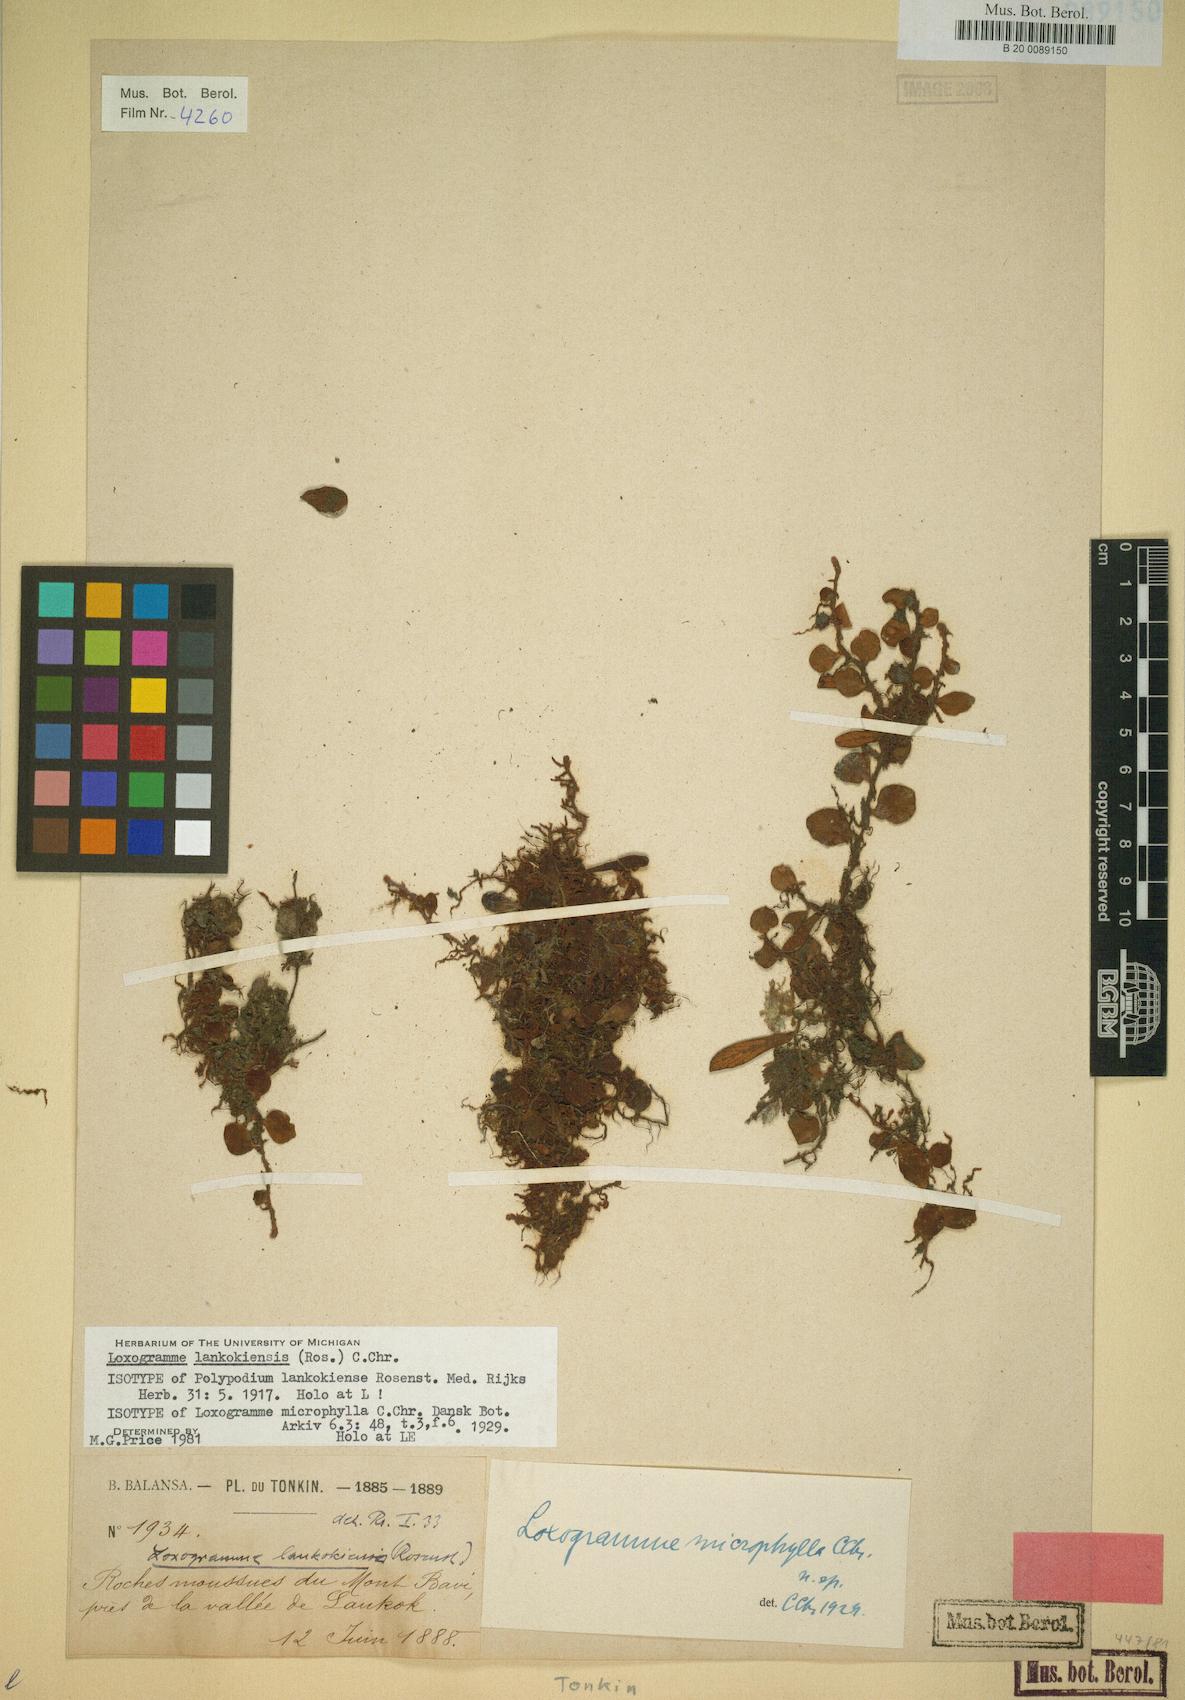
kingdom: Plantae
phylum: Tracheophyta
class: Polypodiopsida
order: Polypodiales
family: Polypodiaceae
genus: Loxogramme
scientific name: Loxogramme acroscopa
